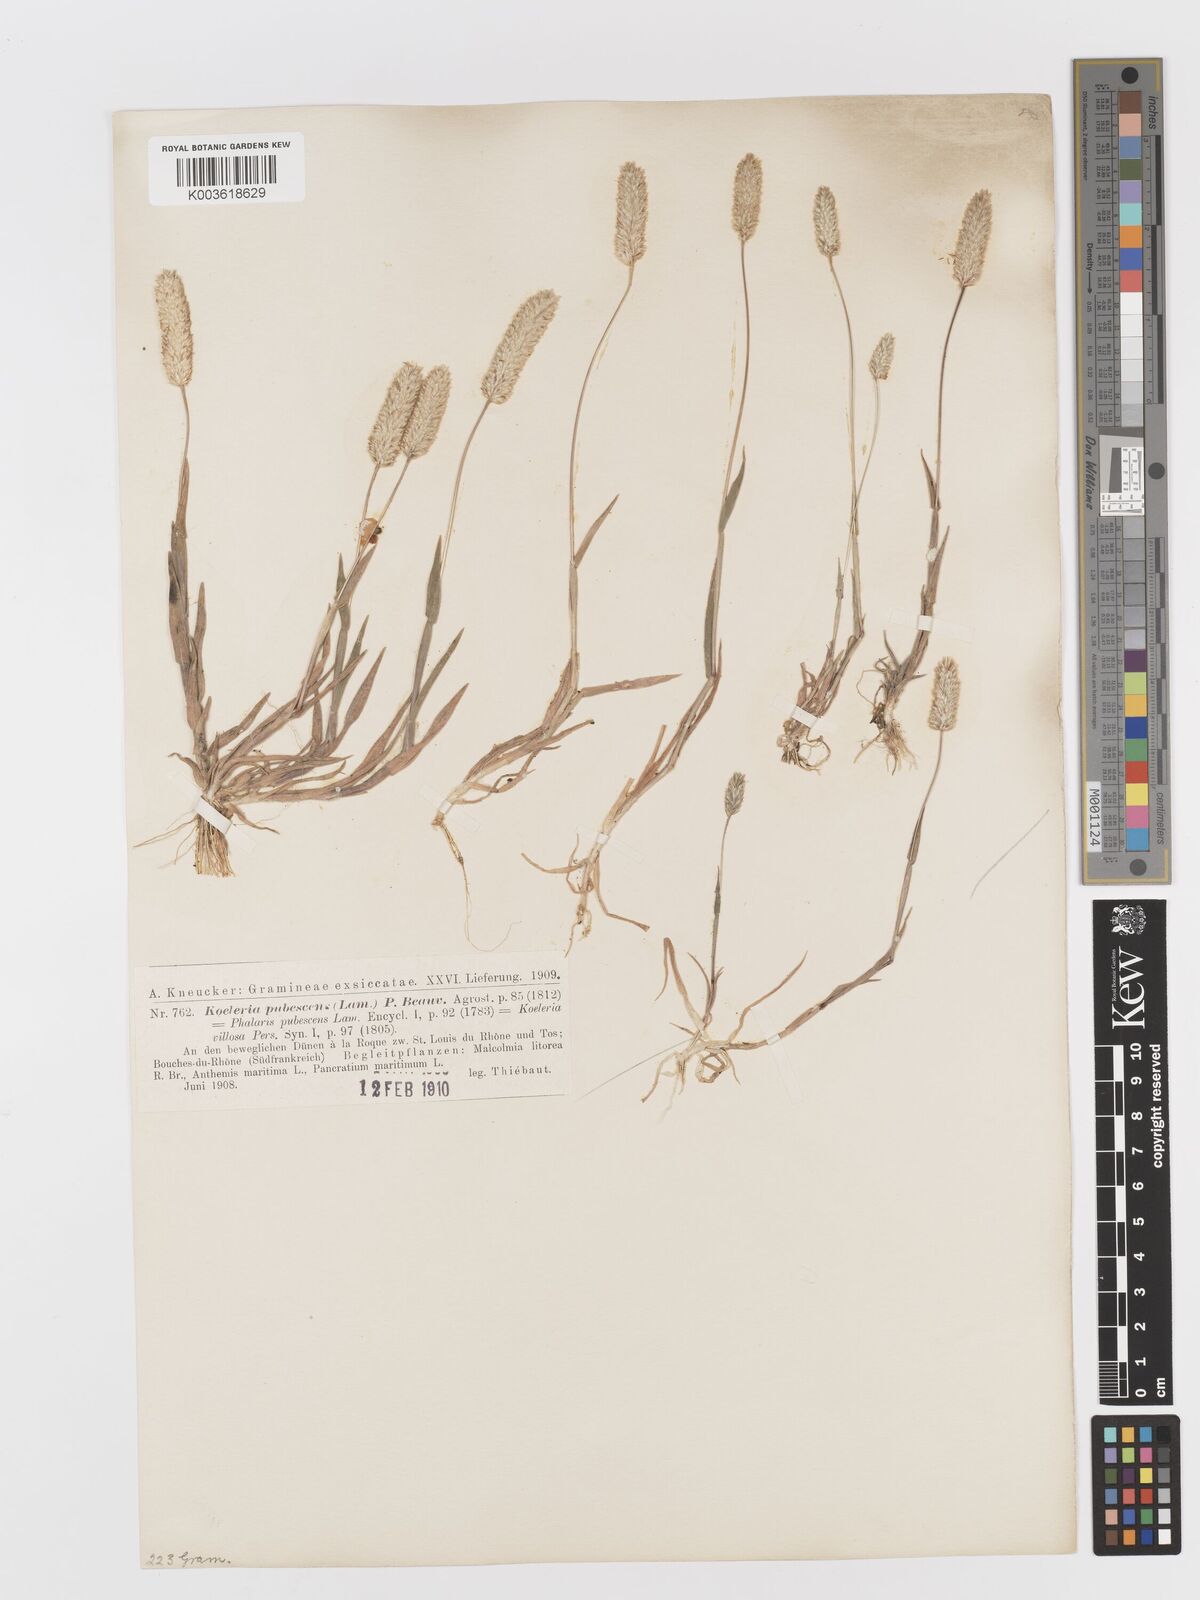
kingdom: Plantae
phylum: Tracheophyta
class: Liliopsida
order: Poales
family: Poaceae
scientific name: Poaceae
